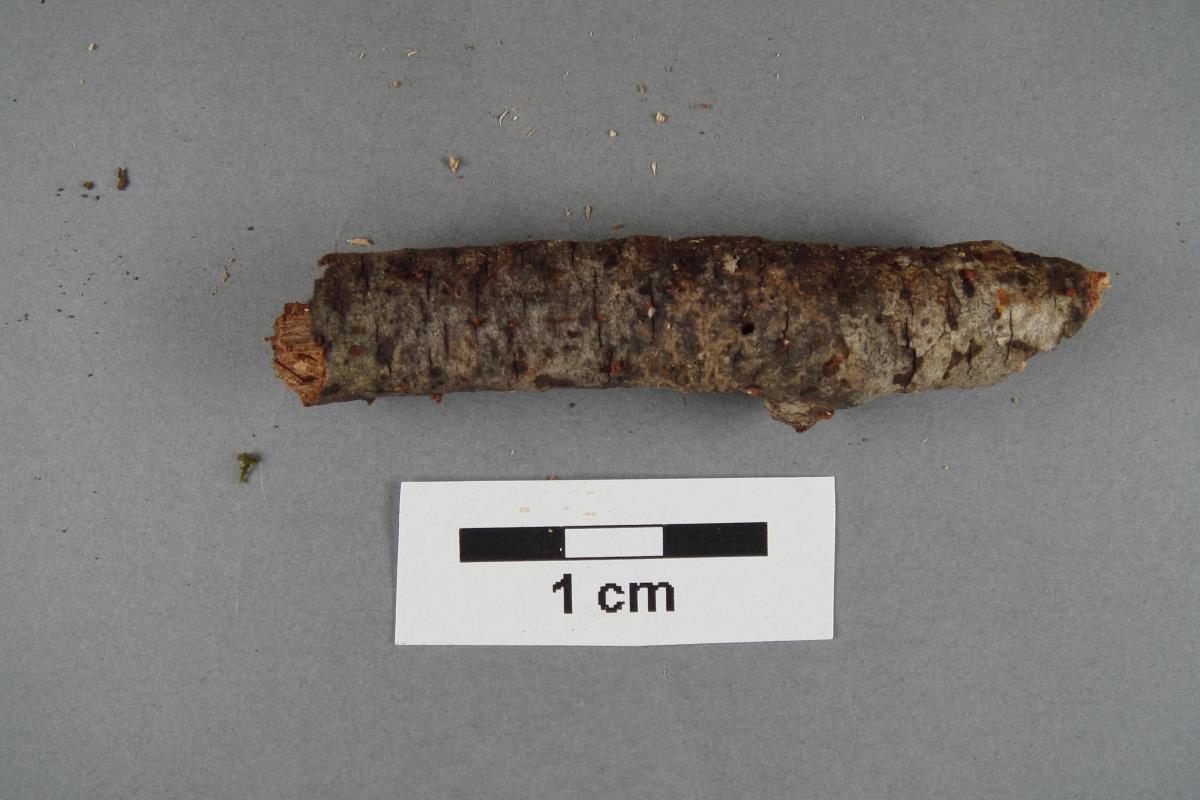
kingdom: Fungi
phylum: Basidiomycota
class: Dacrymycetes
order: Dacrymycetales
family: Dacrymycetaceae
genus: Ditiola
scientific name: Ditiola
